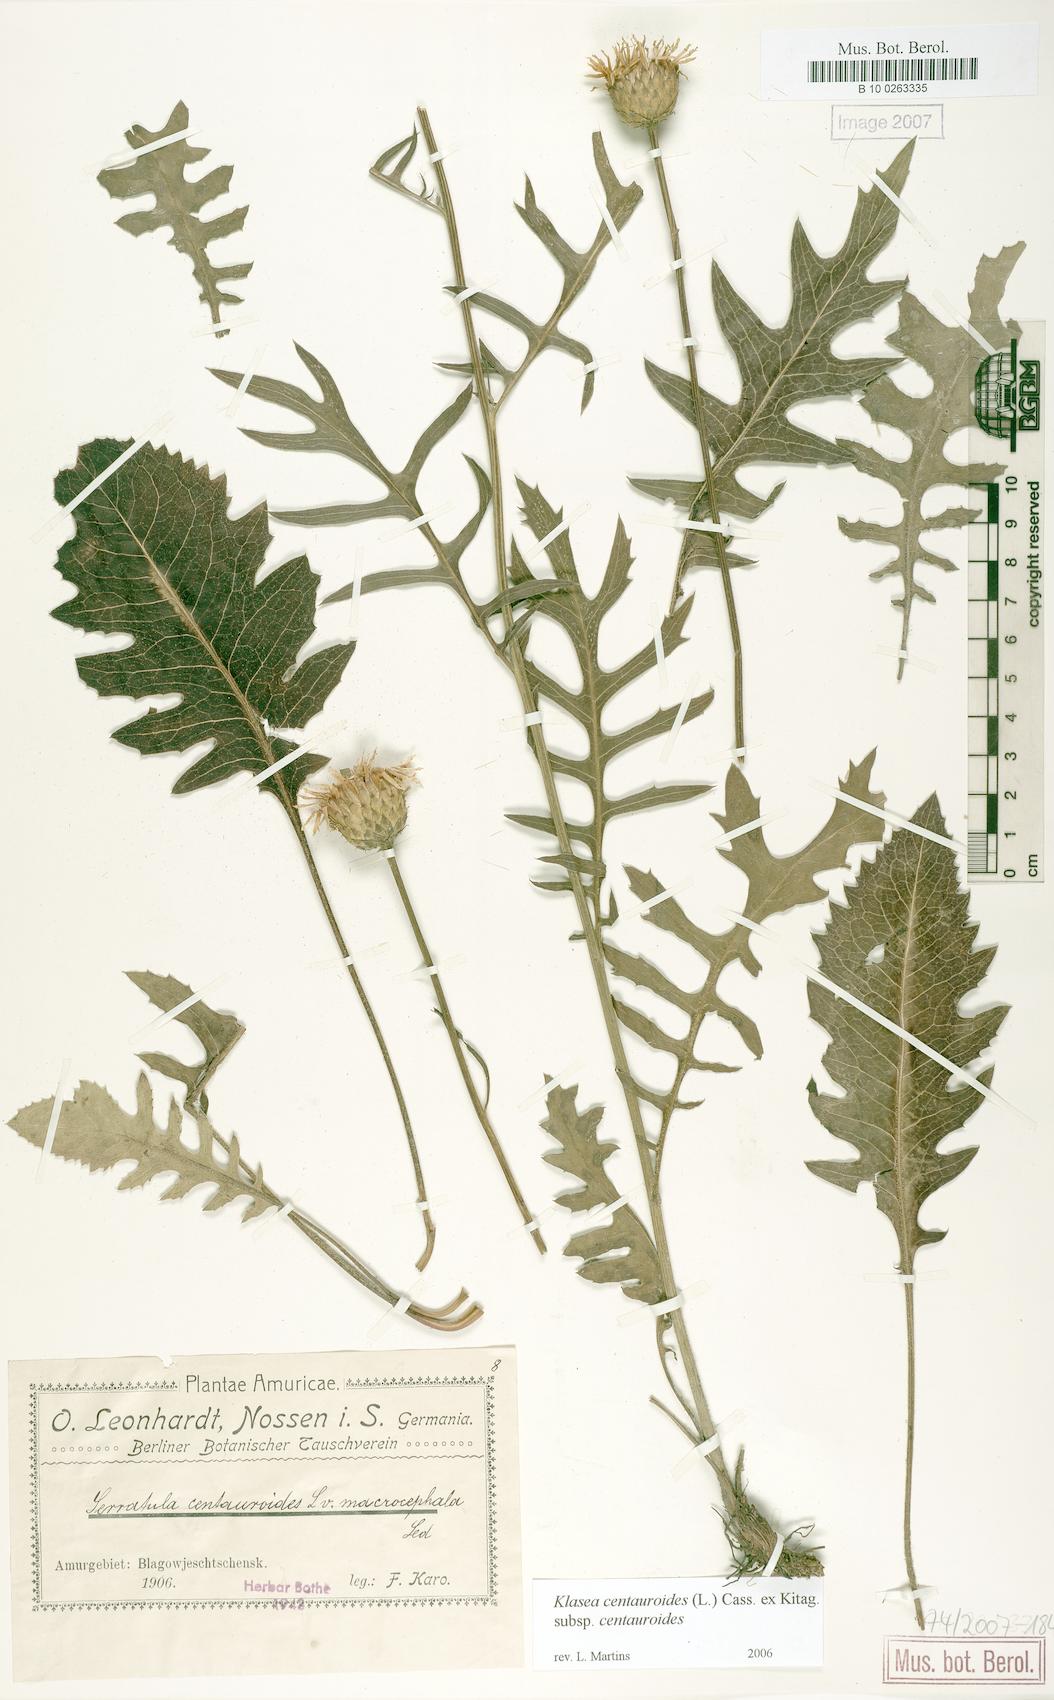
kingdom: Plantae
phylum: Tracheophyta
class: Magnoliopsida
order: Asterales
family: Asteraceae
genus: Klasea
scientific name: Klasea centauroides
